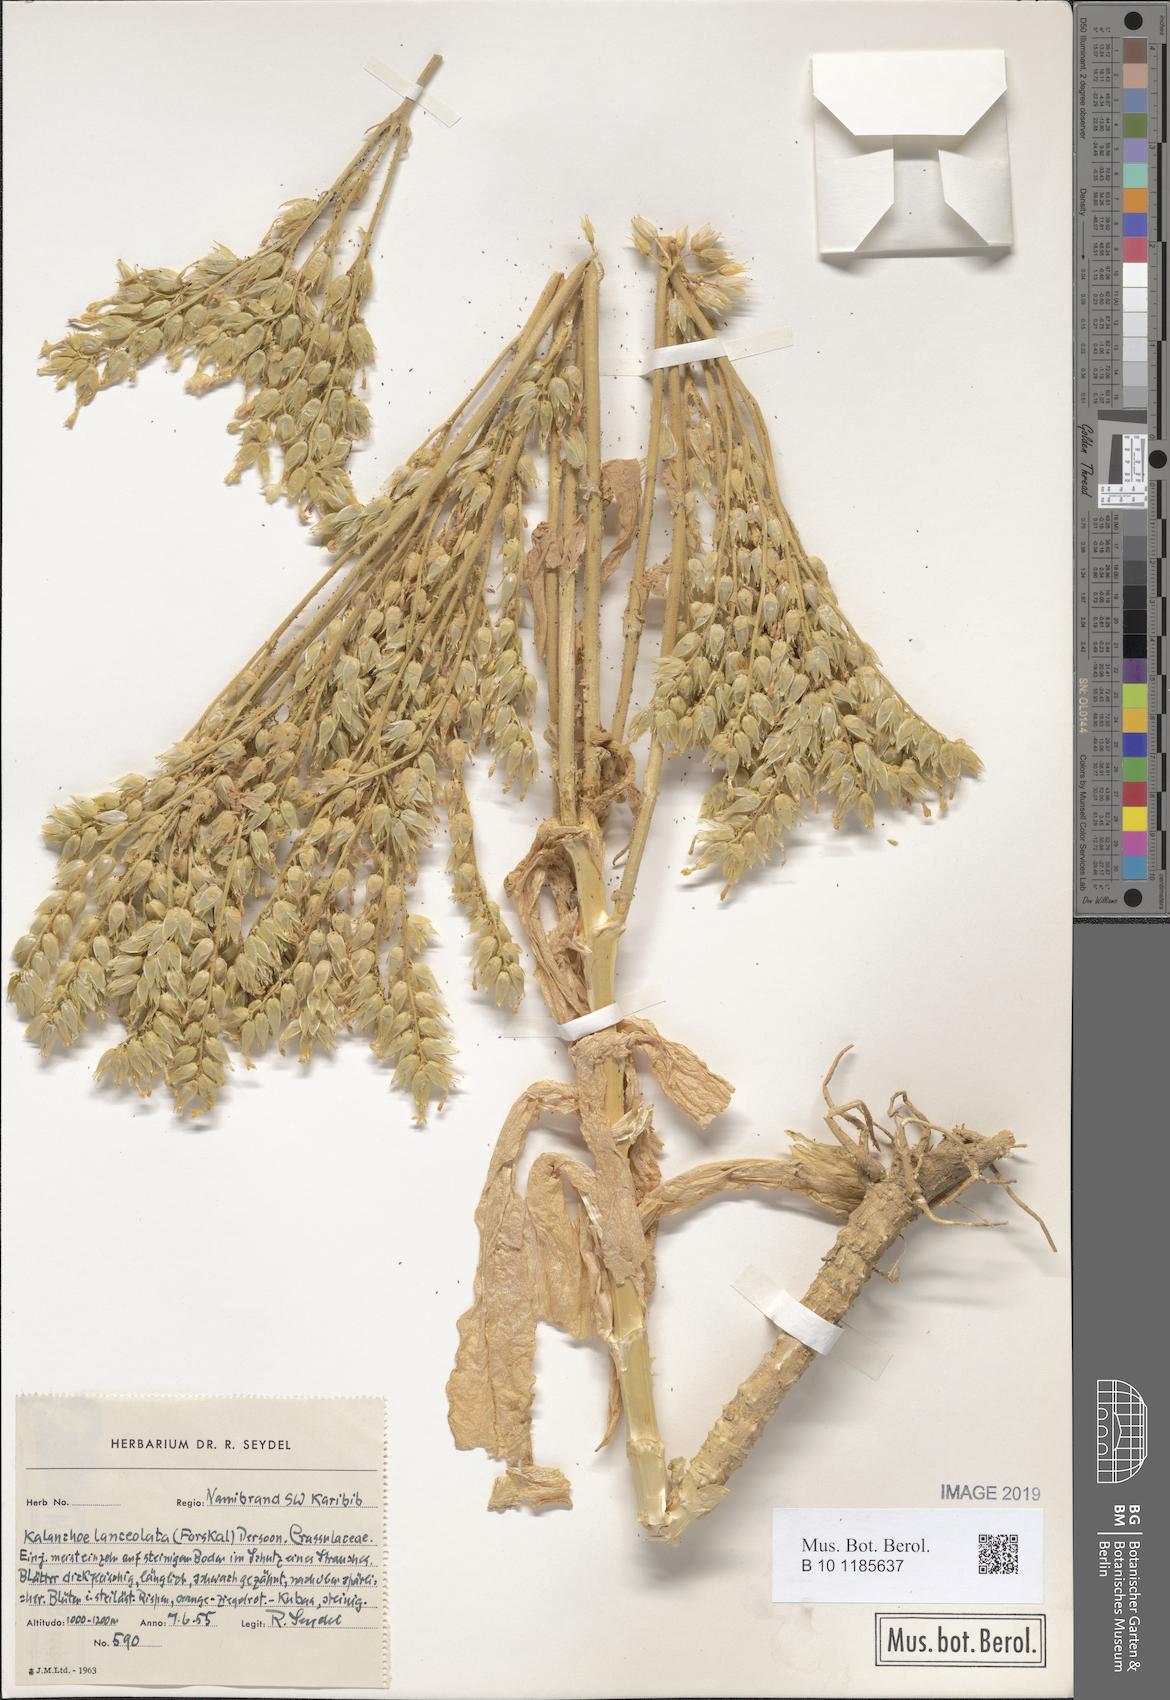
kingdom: Plantae
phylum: Tracheophyta
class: Magnoliopsida
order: Saxifragales
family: Crassulaceae
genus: Kalanchoe
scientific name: Kalanchoe lanceolata
